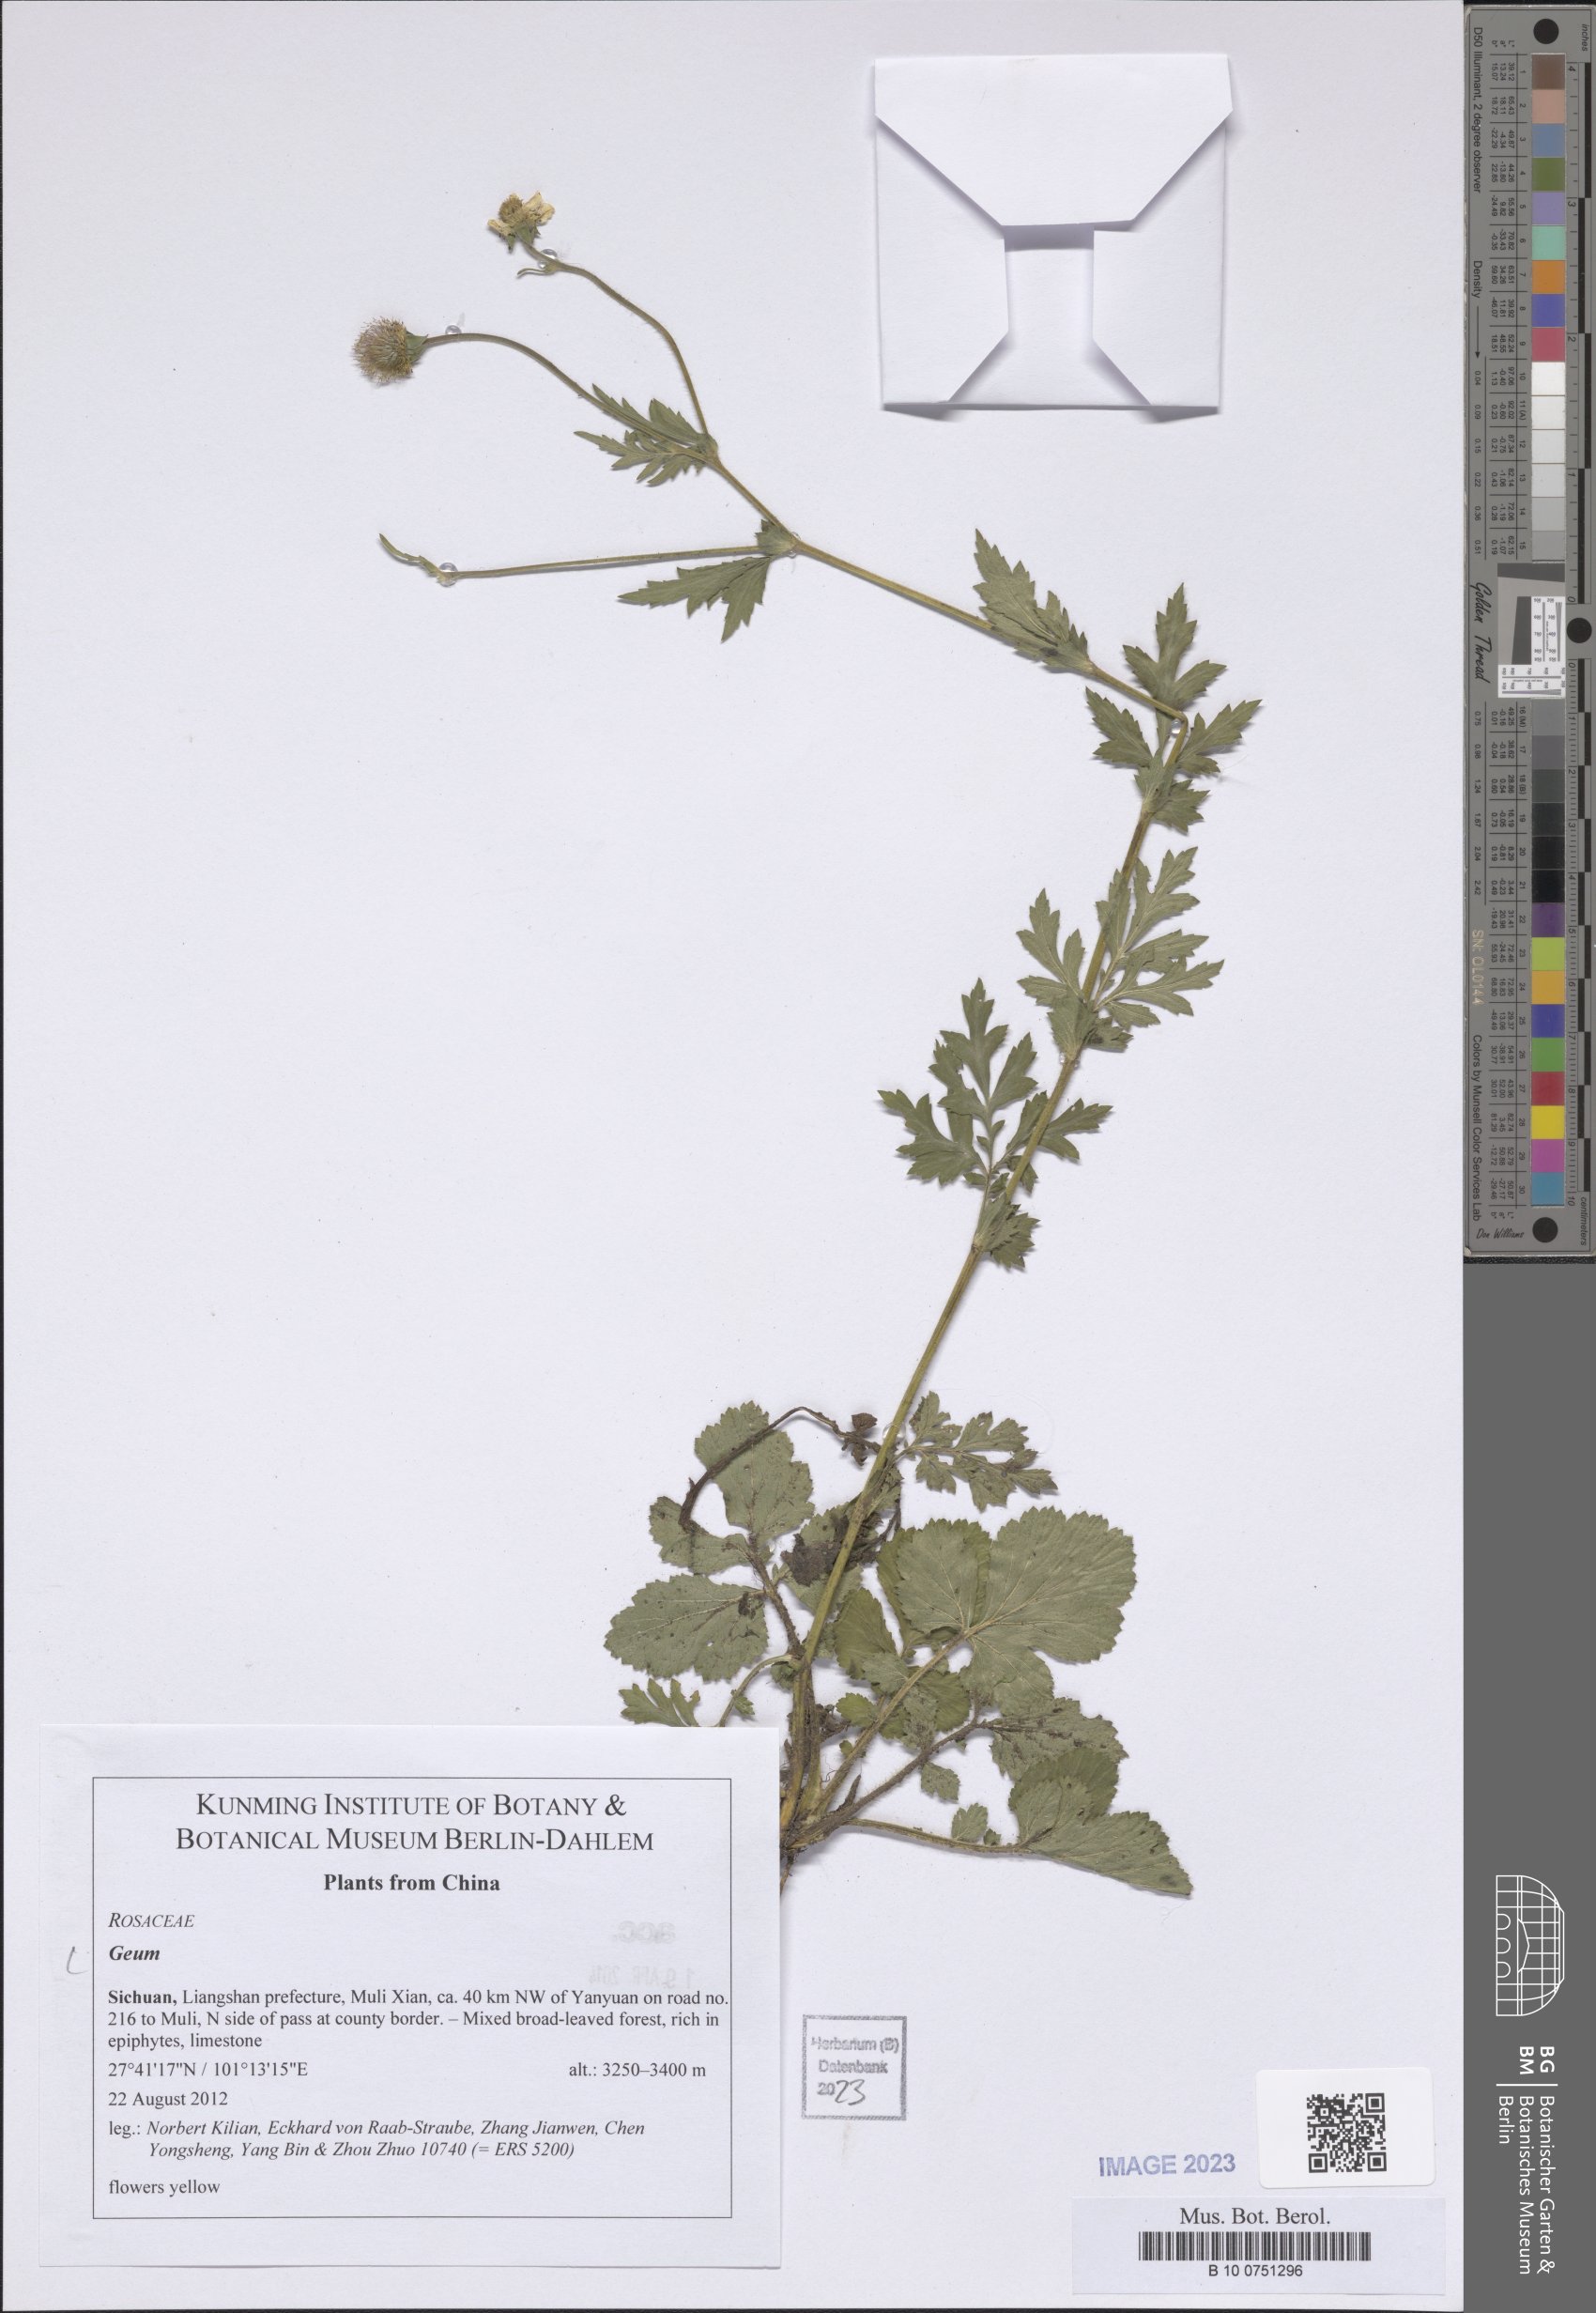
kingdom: Plantae
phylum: Tracheophyta
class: Magnoliopsida
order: Rosales
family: Rosaceae
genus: Geum
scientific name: Geum
